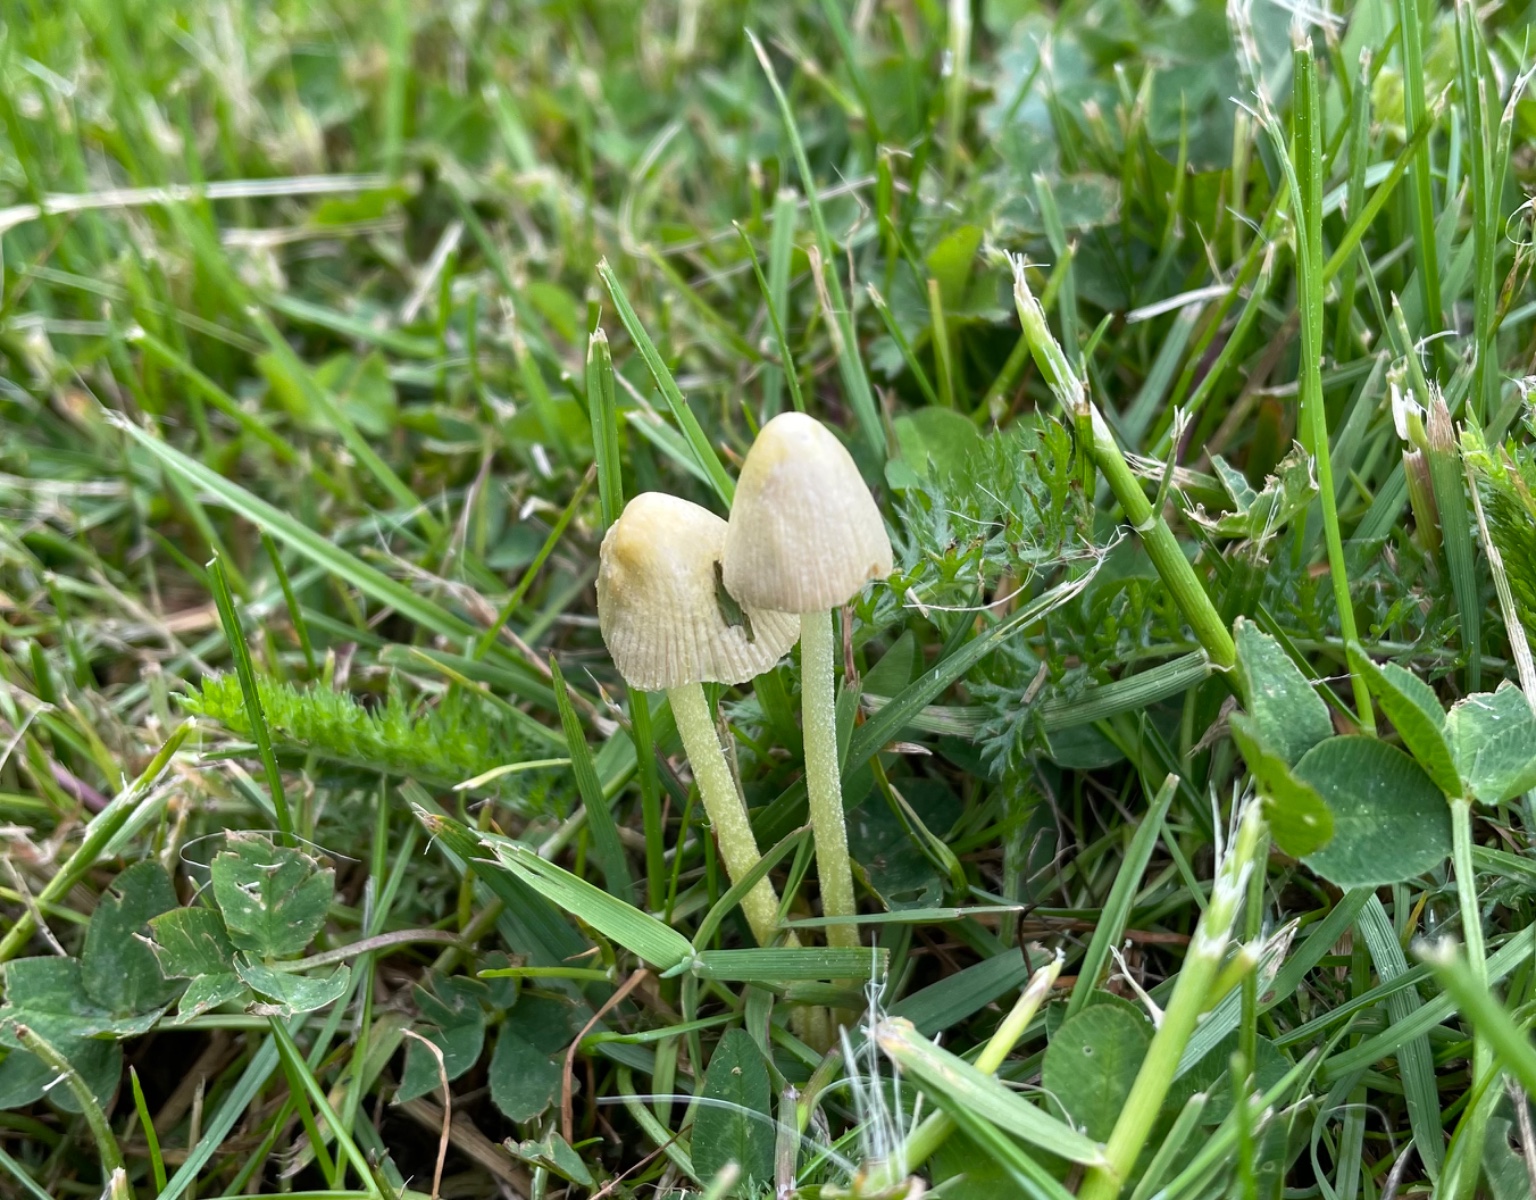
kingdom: Fungi
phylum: Basidiomycota
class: Agaricomycetes
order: Agaricales
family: Bolbitiaceae
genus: Bolbitius
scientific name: Bolbitius titubans
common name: almindelig gulhat
